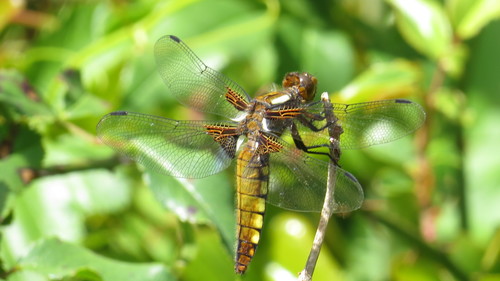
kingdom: Animalia
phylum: Arthropoda
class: Insecta
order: Odonata
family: Libellulidae
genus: Libellula
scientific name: Libellula depressa
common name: Broad-bodied chaser
